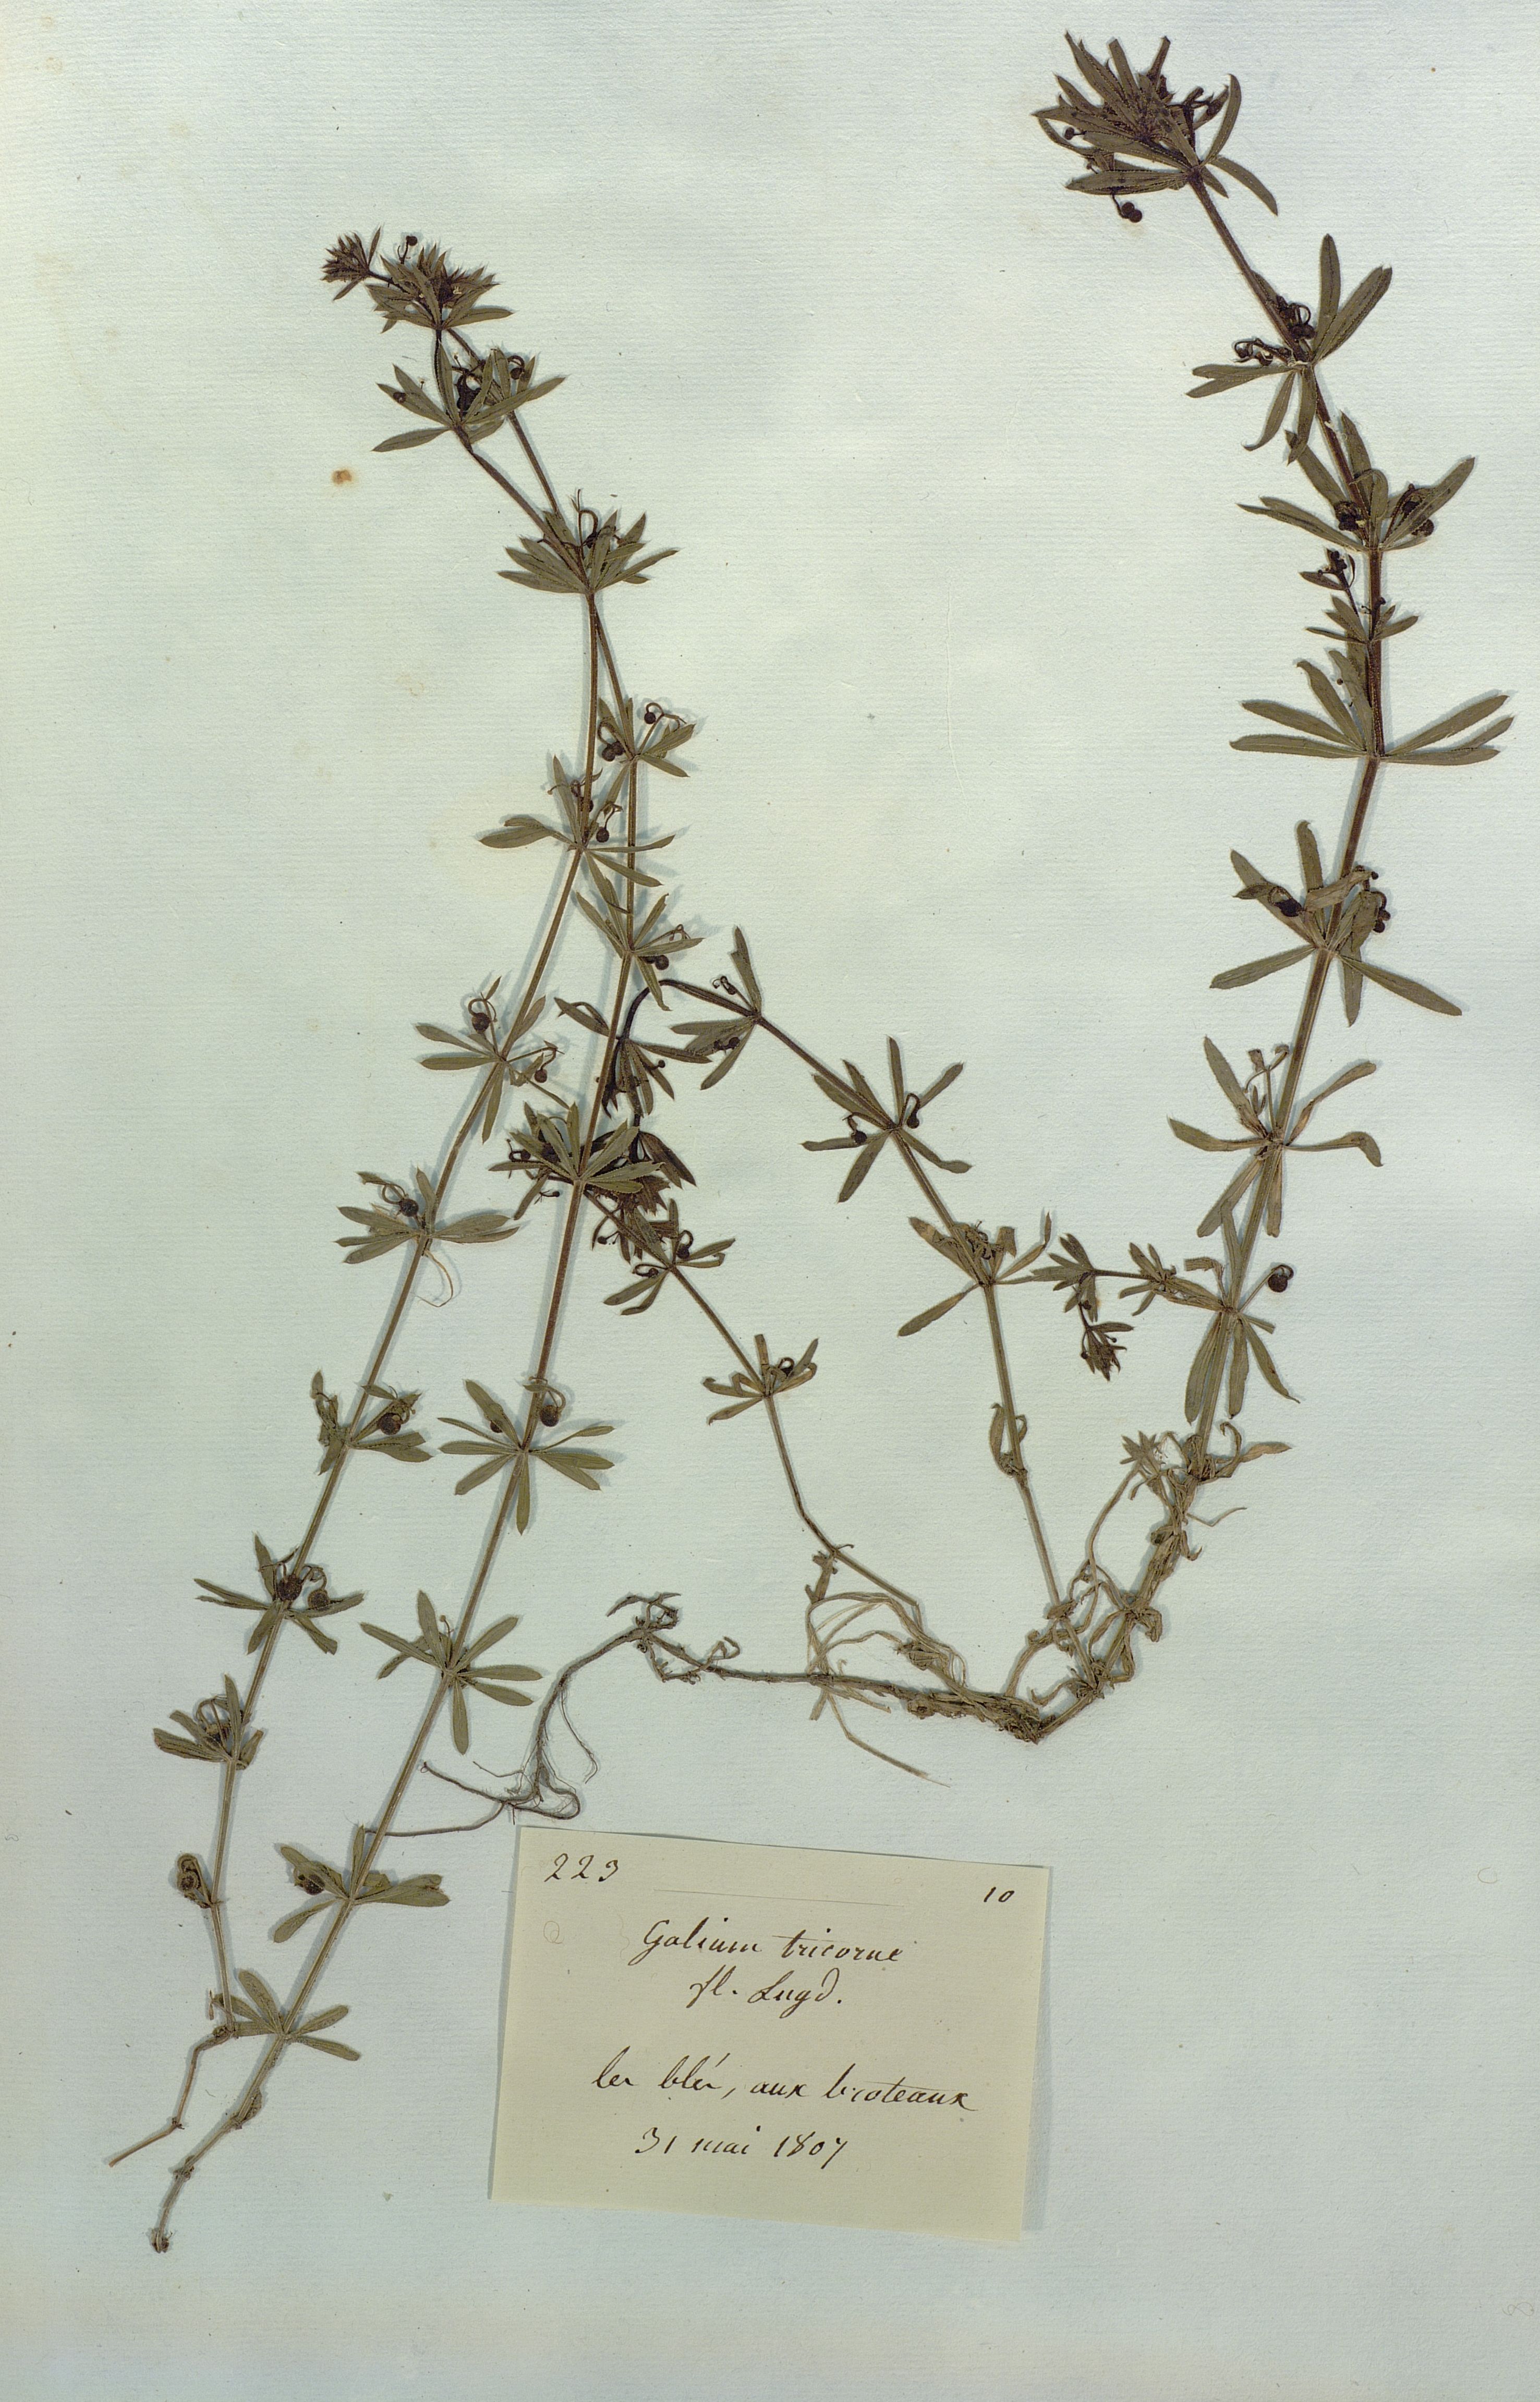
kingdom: Plantae
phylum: Tracheophyta
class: Magnoliopsida
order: Gentianales
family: Rubiaceae
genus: Galium
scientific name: Galium tricorne
